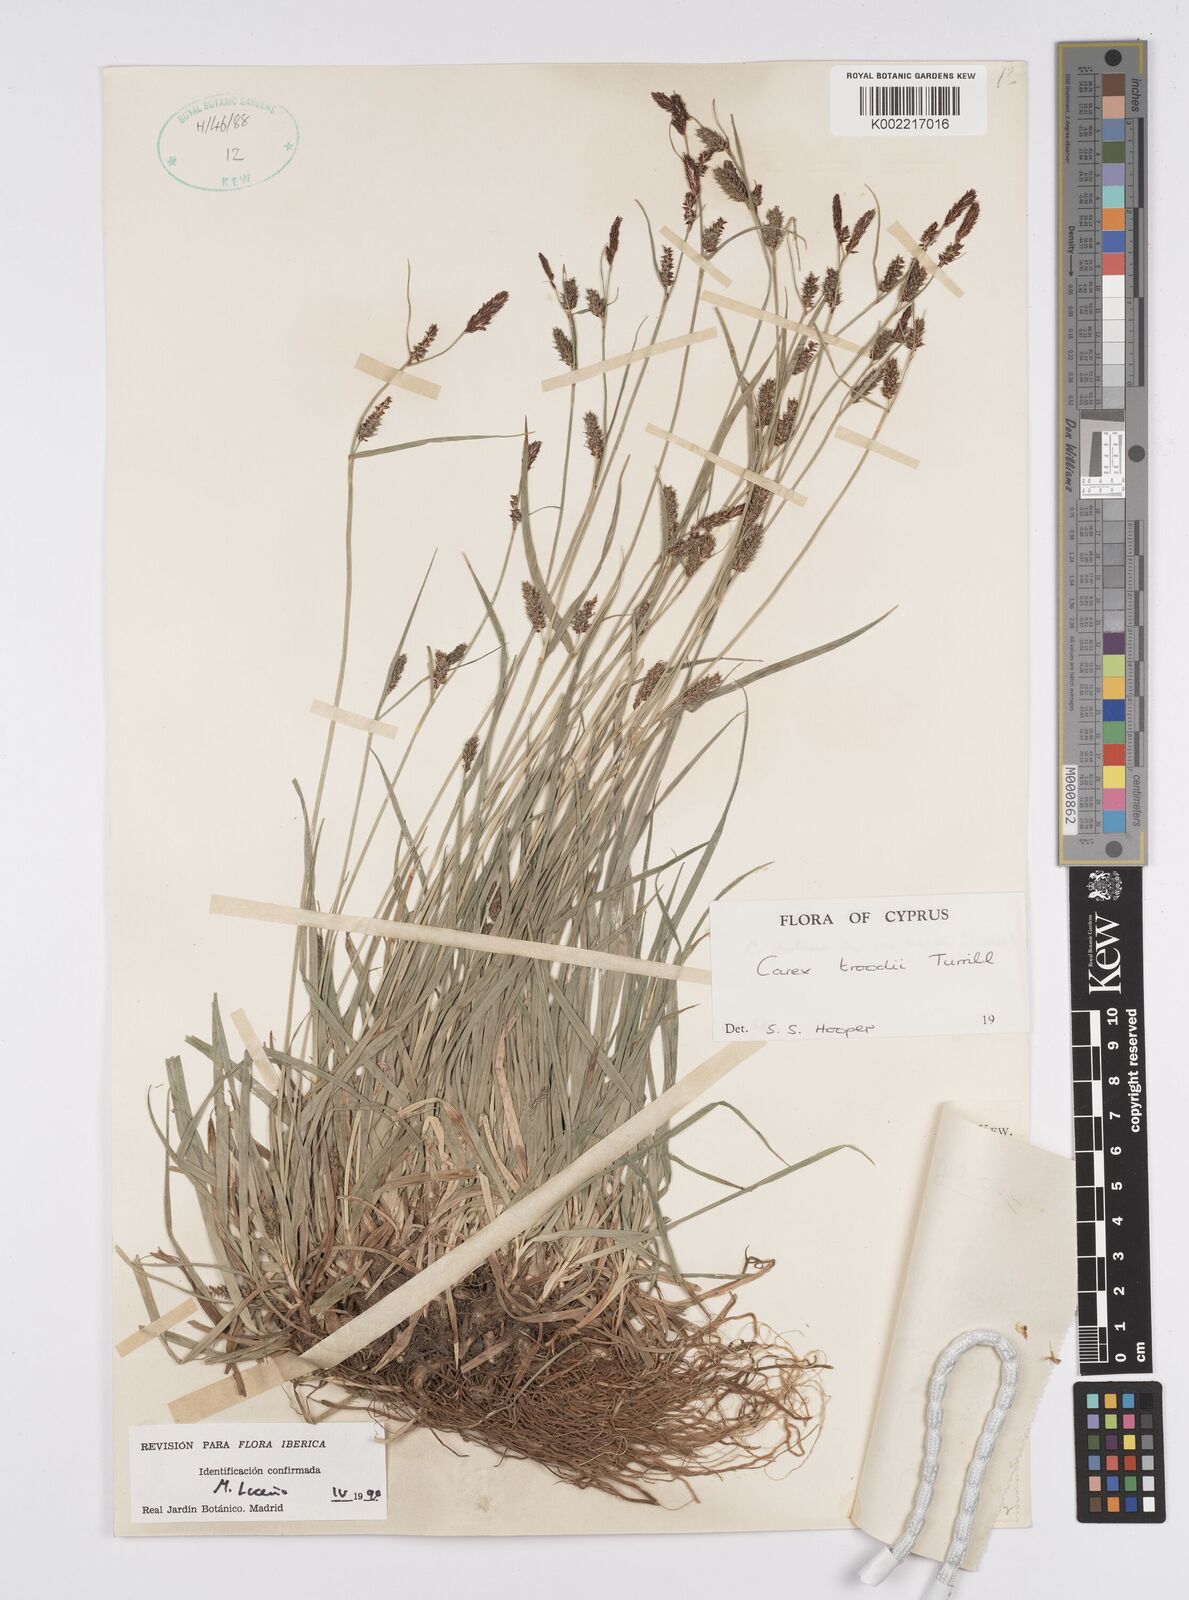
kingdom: Plantae
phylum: Tracheophyta
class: Liliopsida
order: Poales
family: Cyperaceae
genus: Carex
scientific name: Carex troodi
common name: Troodos mount sedge
